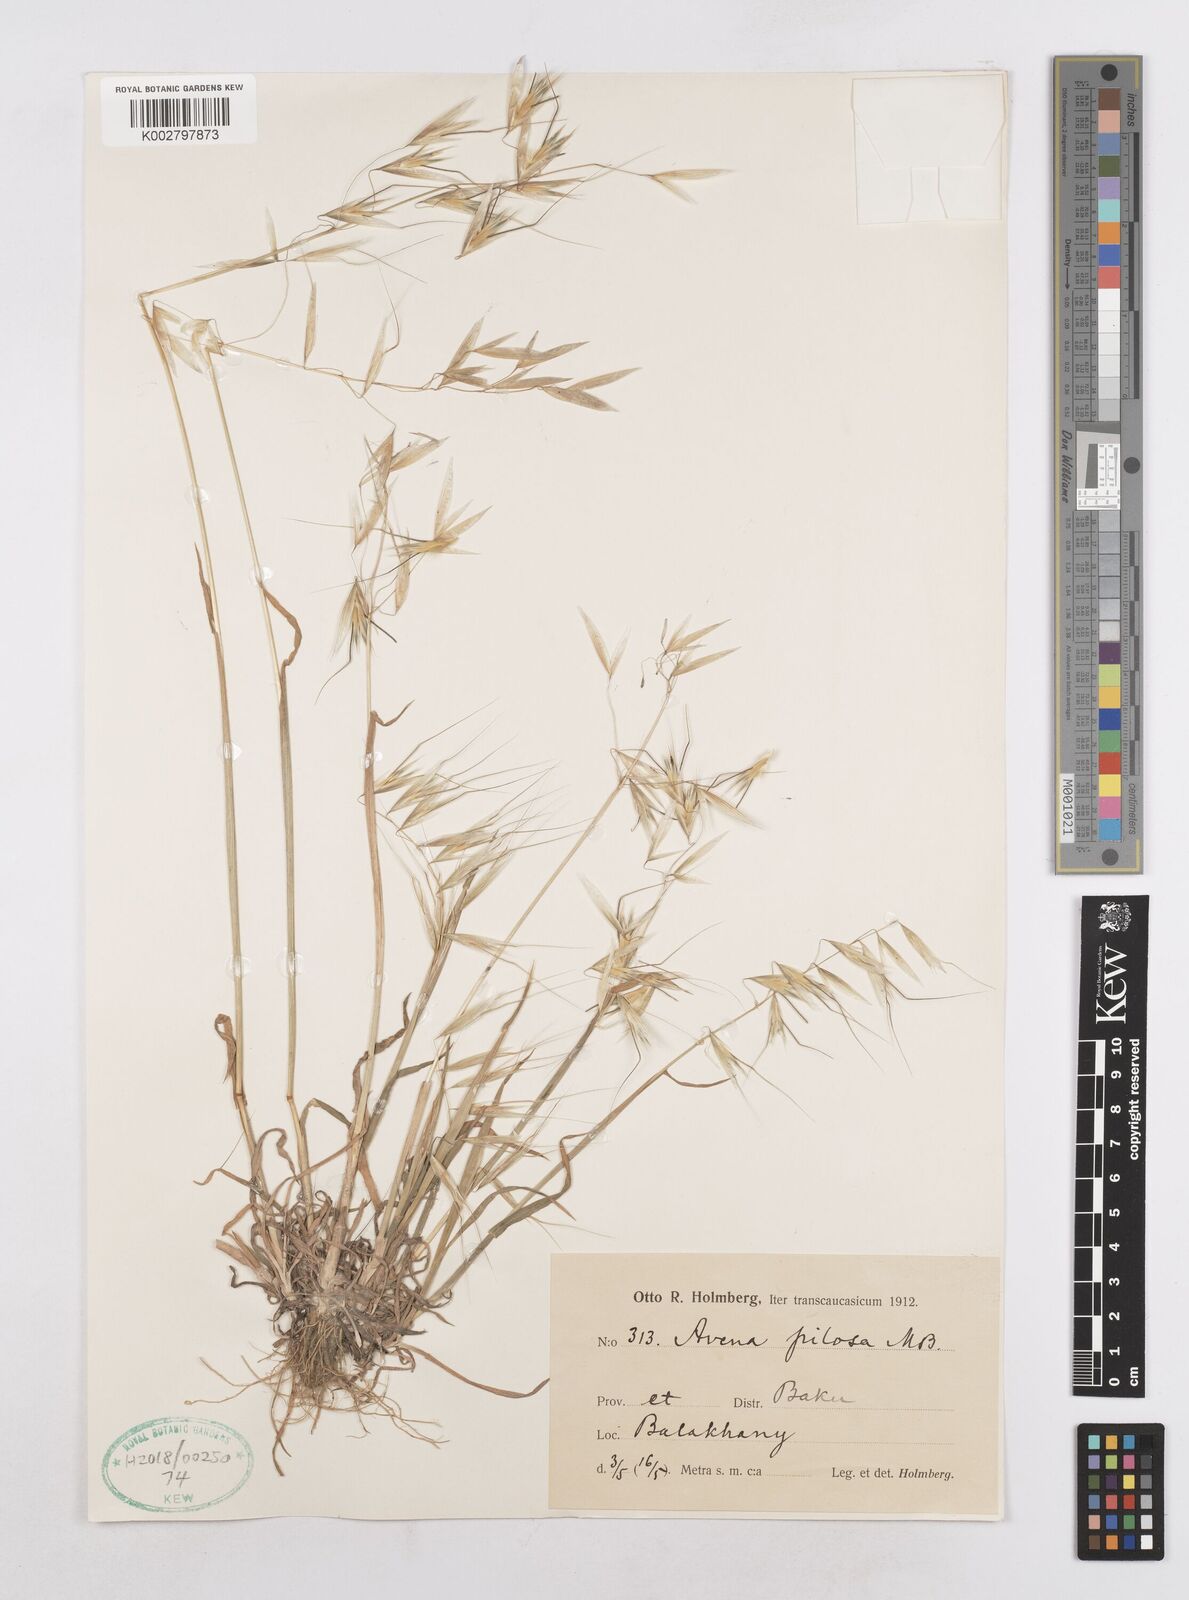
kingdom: Plantae
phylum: Tracheophyta
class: Liliopsida
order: Poales
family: Poaceae
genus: Avena
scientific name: Avena
